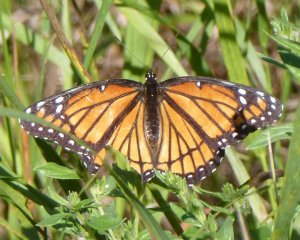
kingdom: Animalia
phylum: Arthropoda
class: Insecta
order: Lepidoptera
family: Nymphalidae
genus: Limenitis
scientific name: Limenitis archippus
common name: Viceroy
